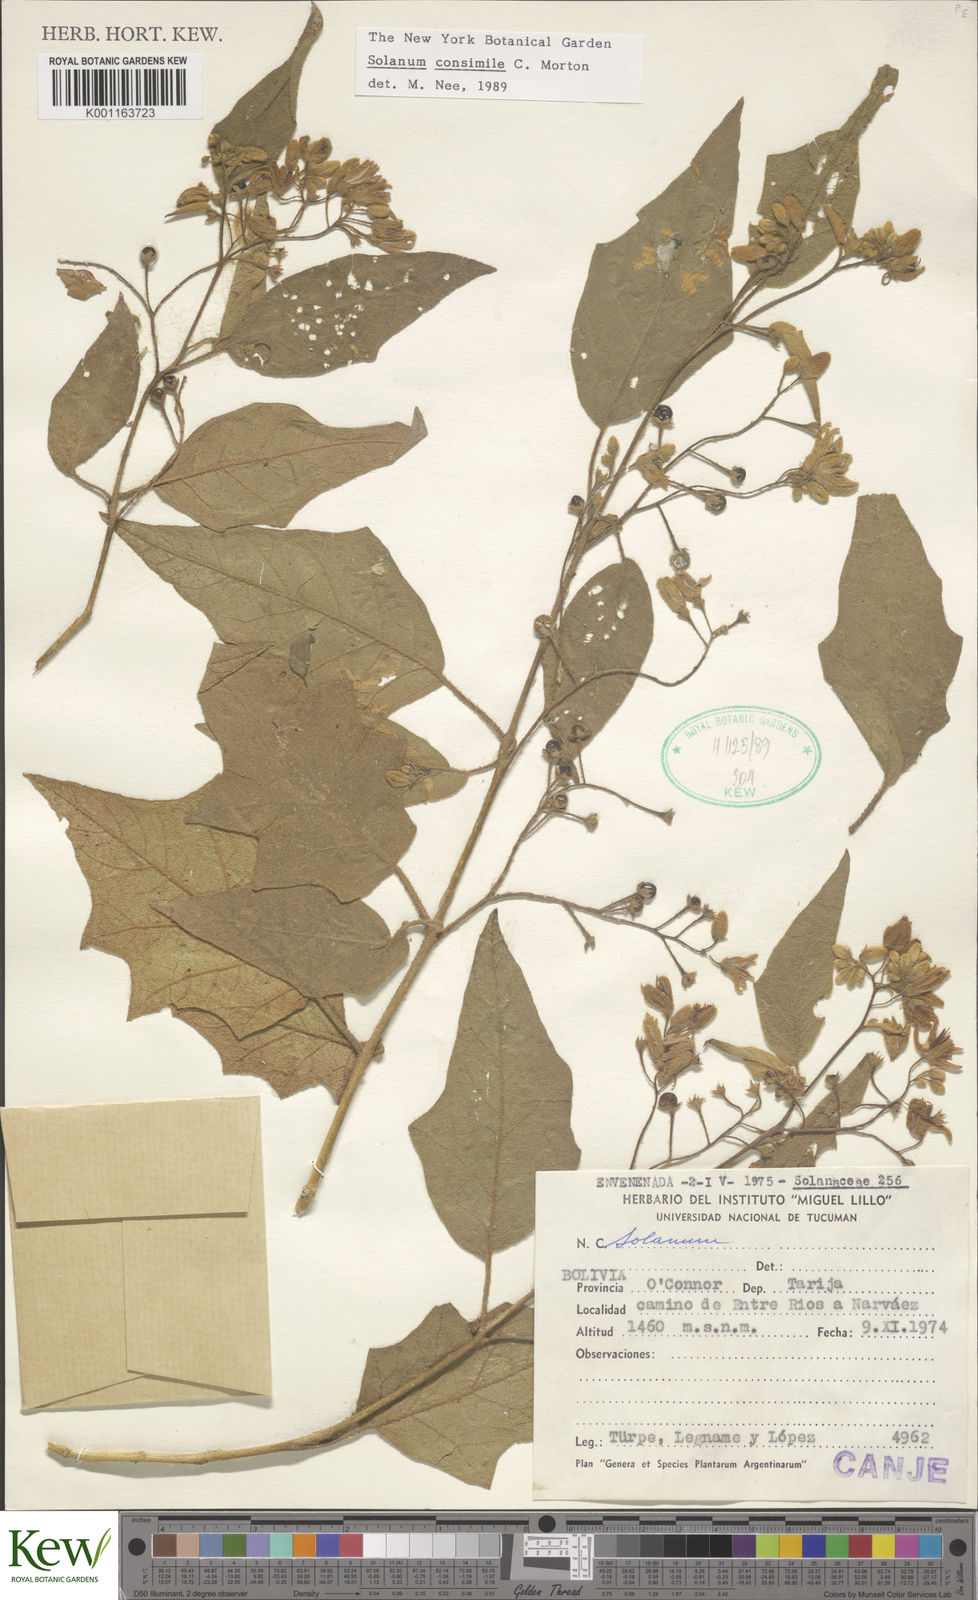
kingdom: Plantae
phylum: Tracheophyta
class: Magnoliopsida
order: Solanales
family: Solanaceae
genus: Solanum
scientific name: Solanum consimile
